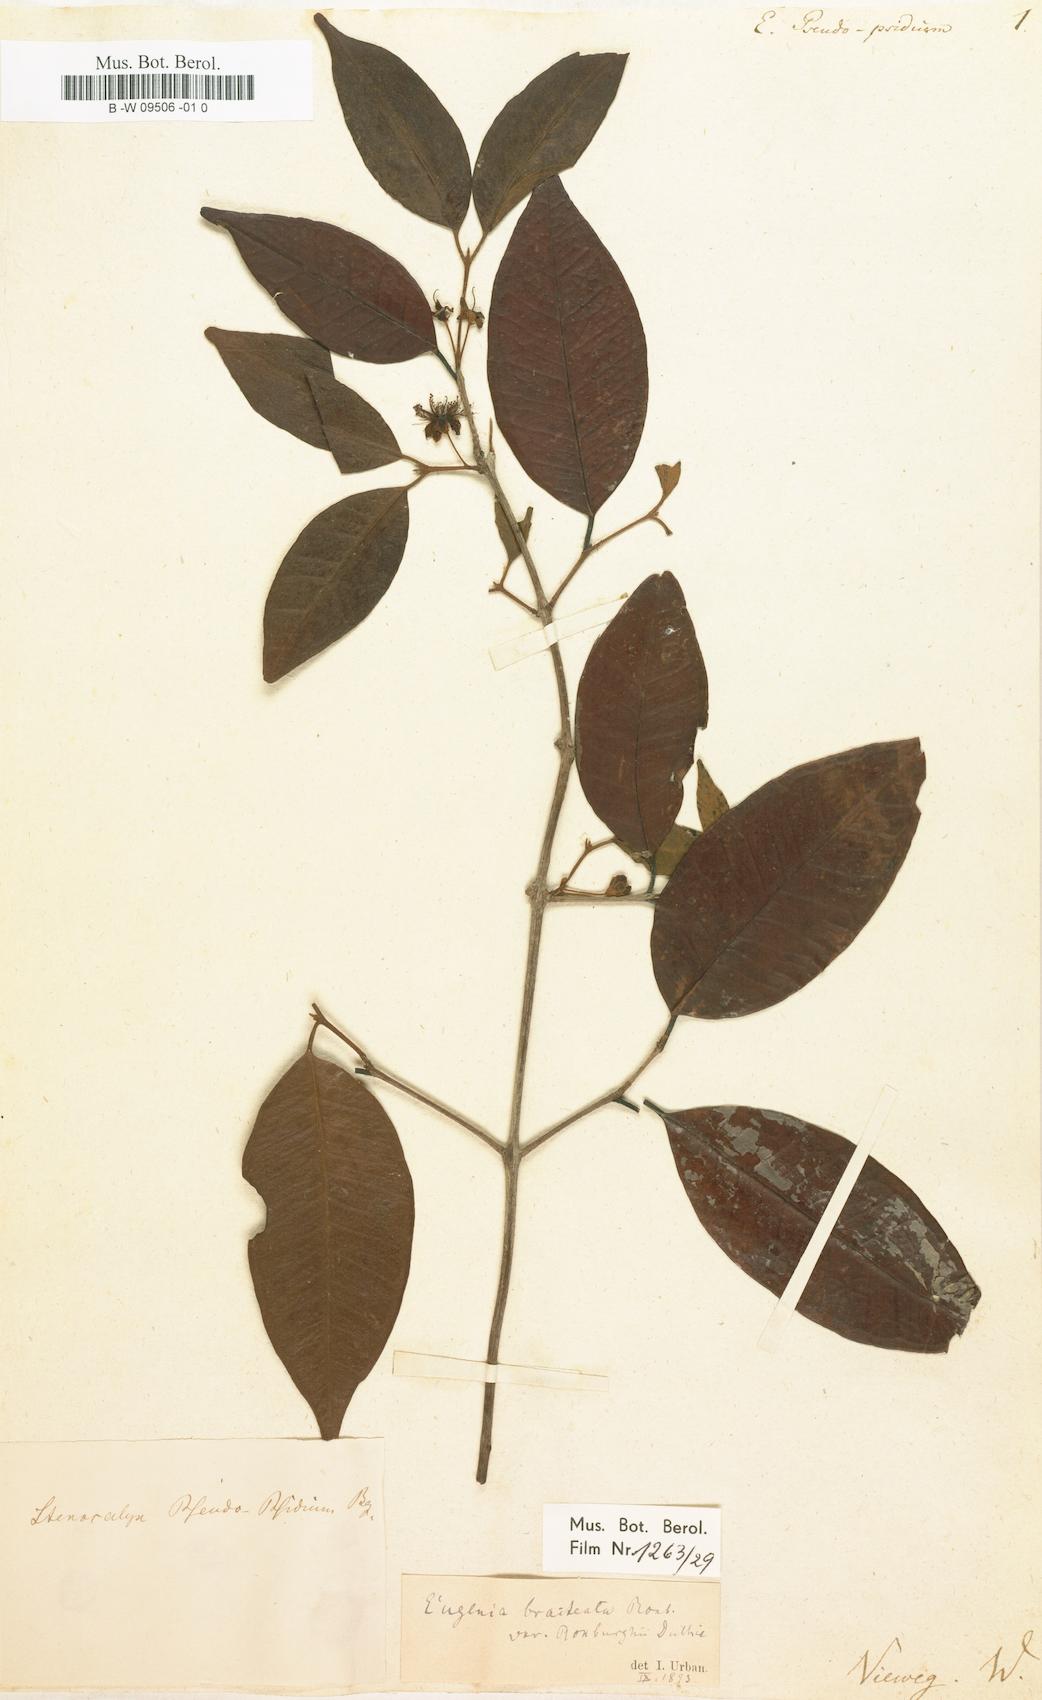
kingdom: Plantae
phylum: Tracheophyta
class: Magnoliopsida
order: Myrtales
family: Myrtaceae
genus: Eugenia
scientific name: Eugenia pseudopsidium
